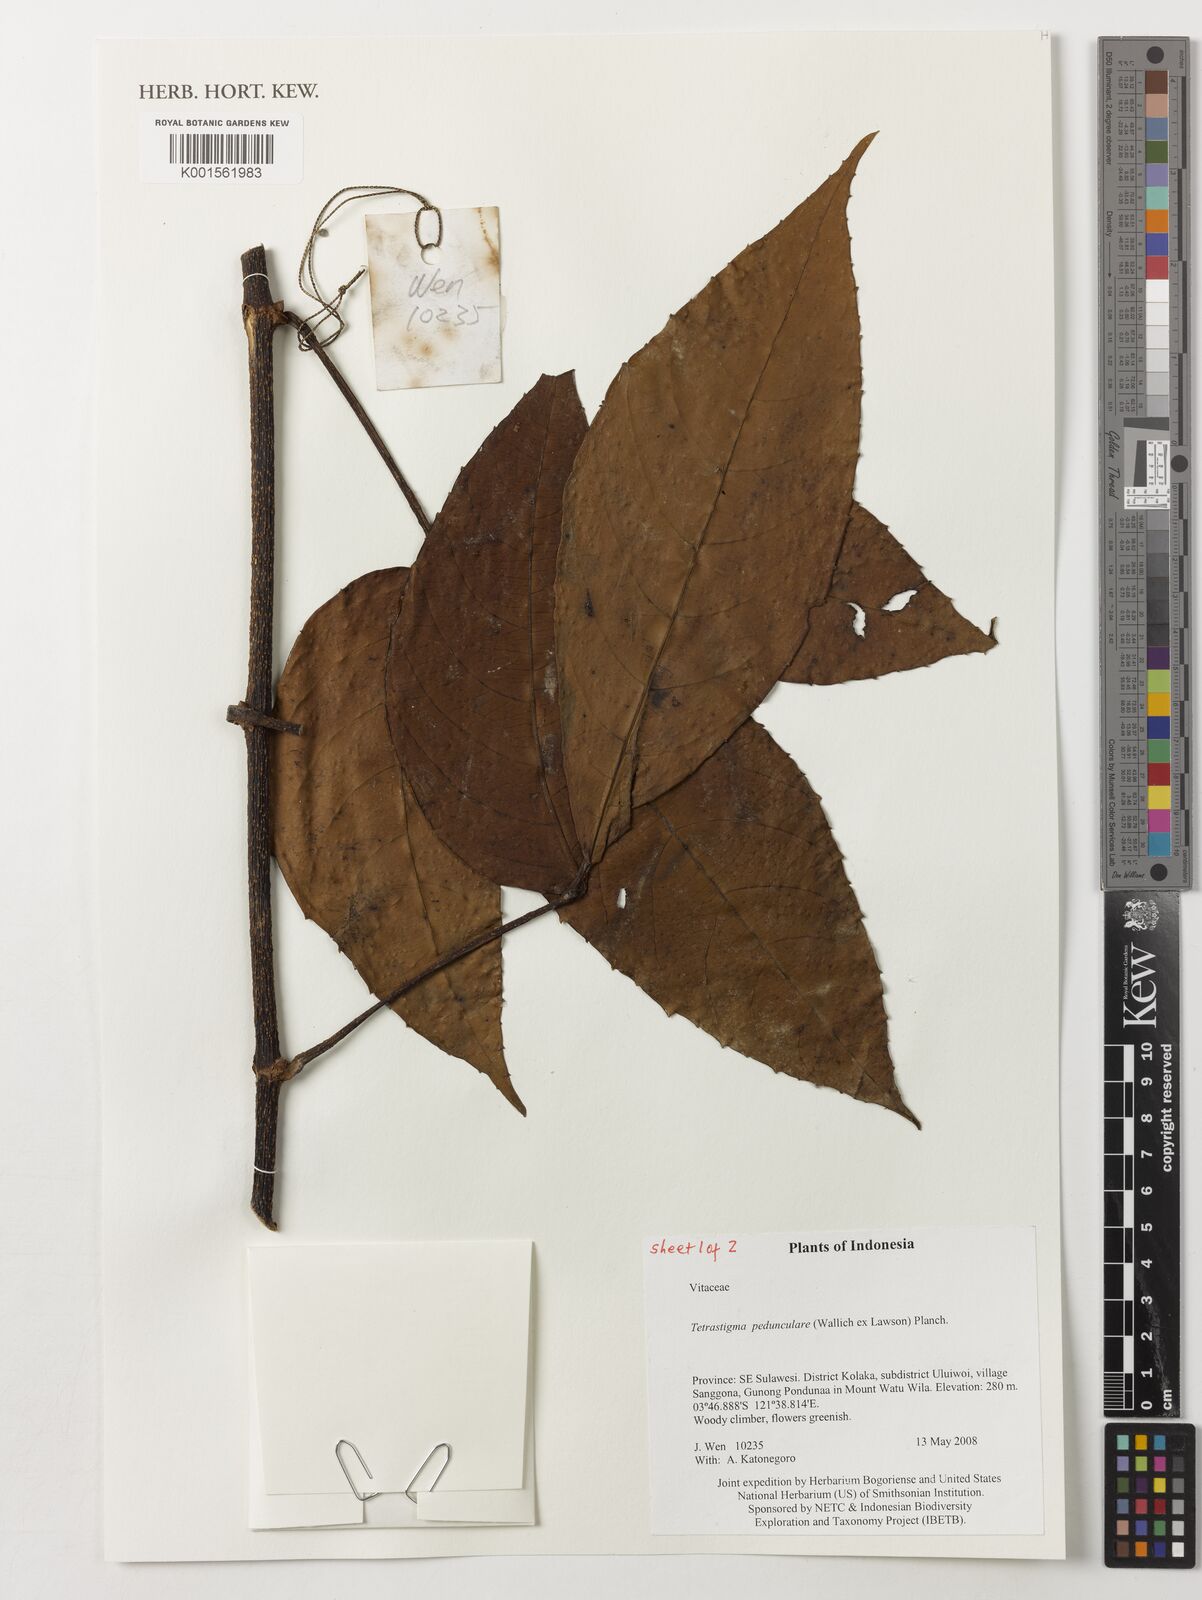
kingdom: Plantae
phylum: Tracheophyta
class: Magnoliopsida
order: Vitales
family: Vitaceae
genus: Tetrastigma
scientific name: Tetrastigma pedunculare
